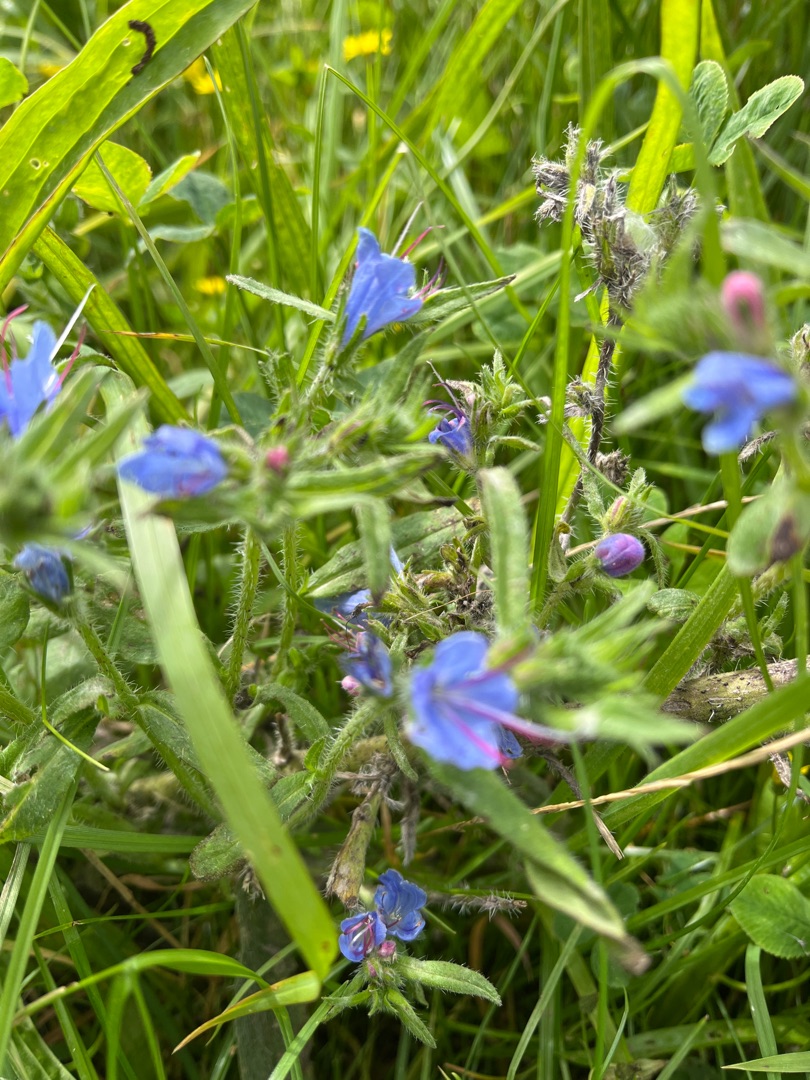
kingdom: Plantae
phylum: Tracheophyta
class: Magnoliopsida
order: Boraginales
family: Boraginaceae
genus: Echium
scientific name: Echium vulgare
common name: Slangehoved
